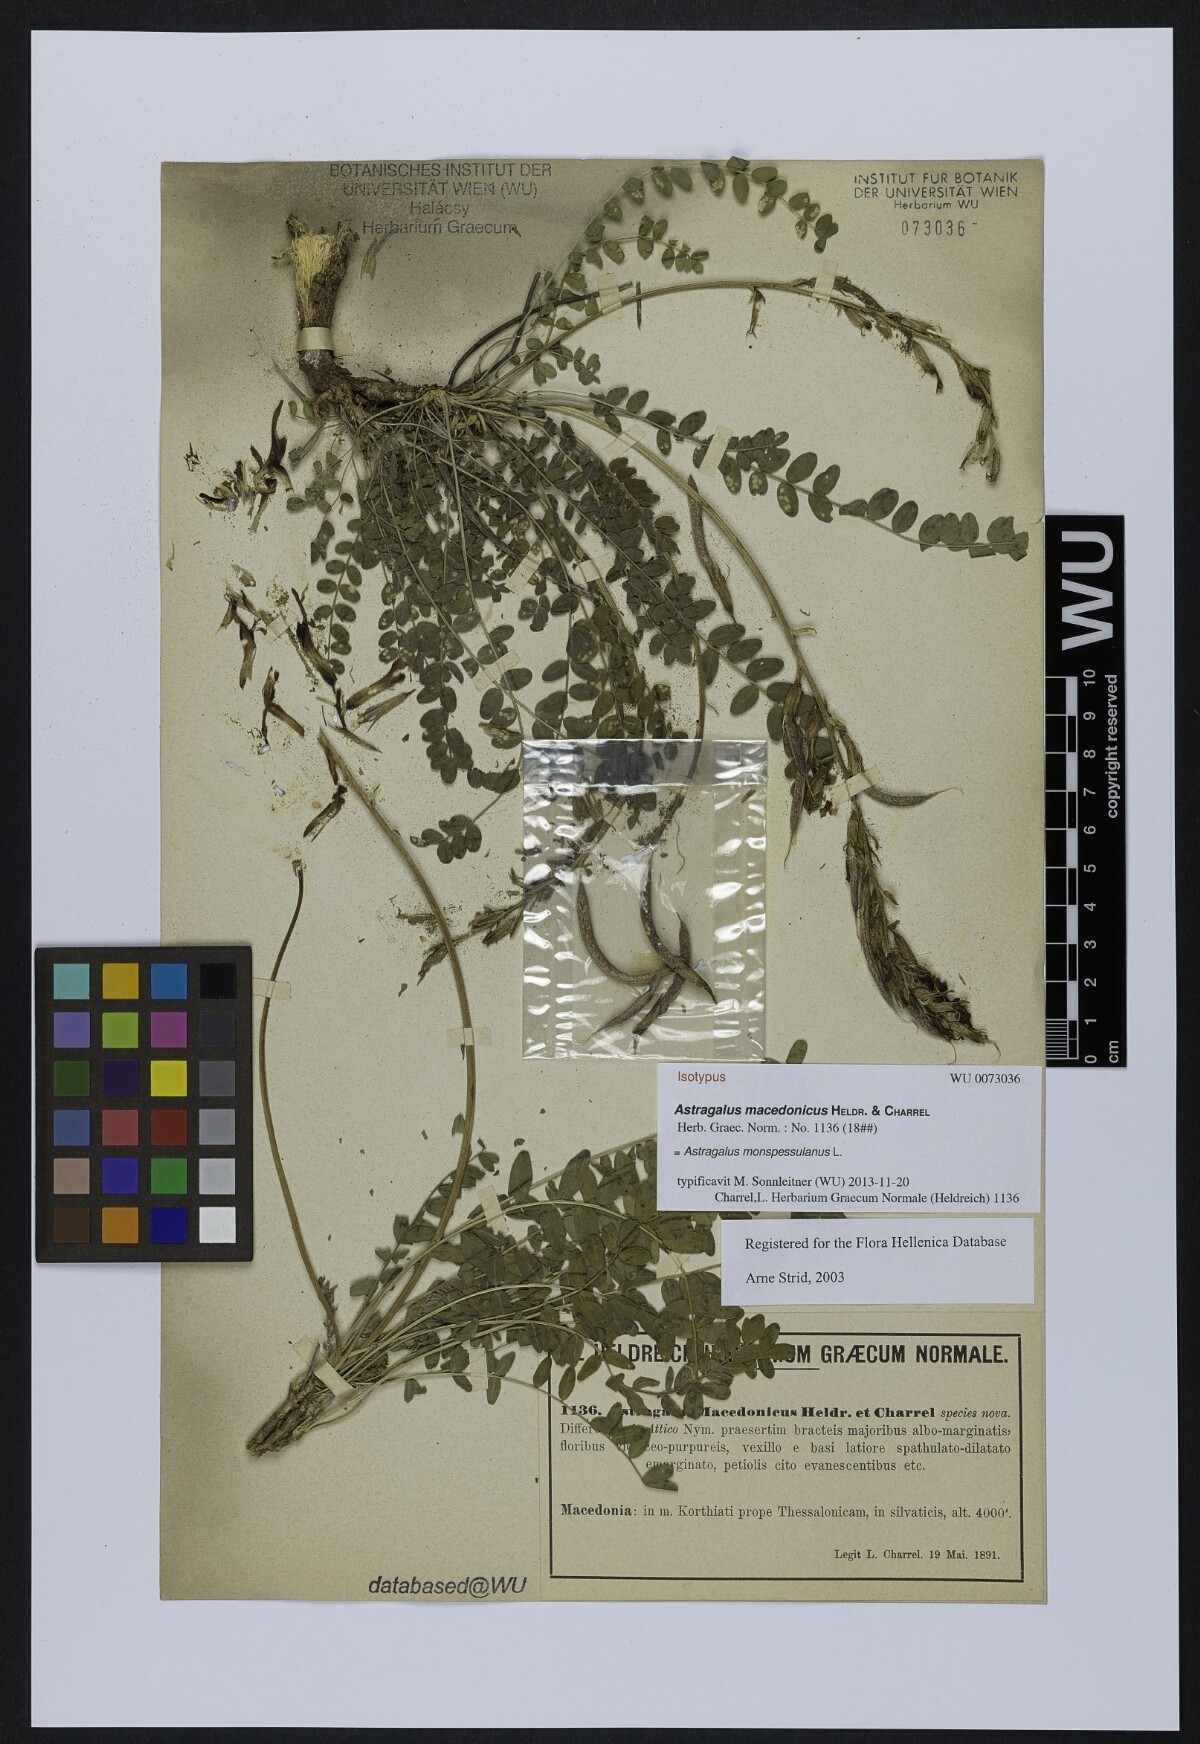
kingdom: Plantae
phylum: Tracheophyta
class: Magnoliopsida
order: Fabales
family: Fabaceae
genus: Astragalus
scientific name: Astragalus monspessulanus
